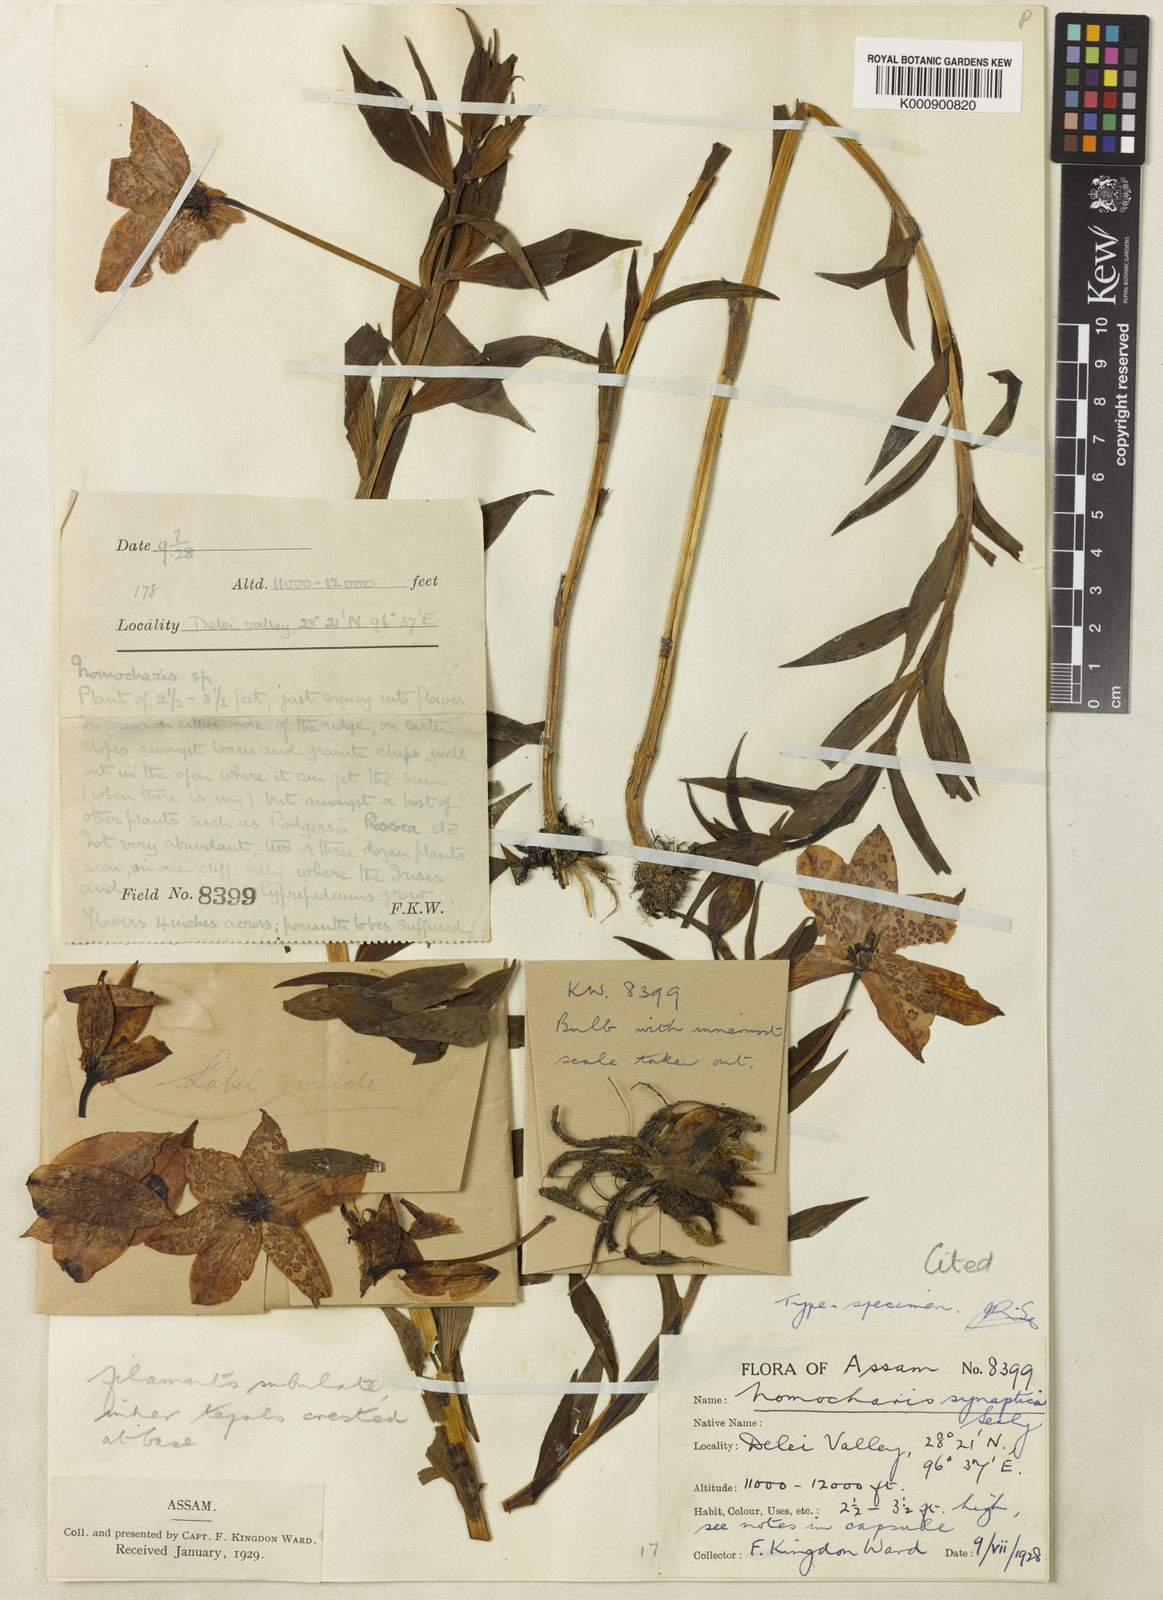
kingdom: Plantae
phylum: Tracheophyta
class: Liliopsida
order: Liliales
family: Liliaceae
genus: Lilium
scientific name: Lilium
